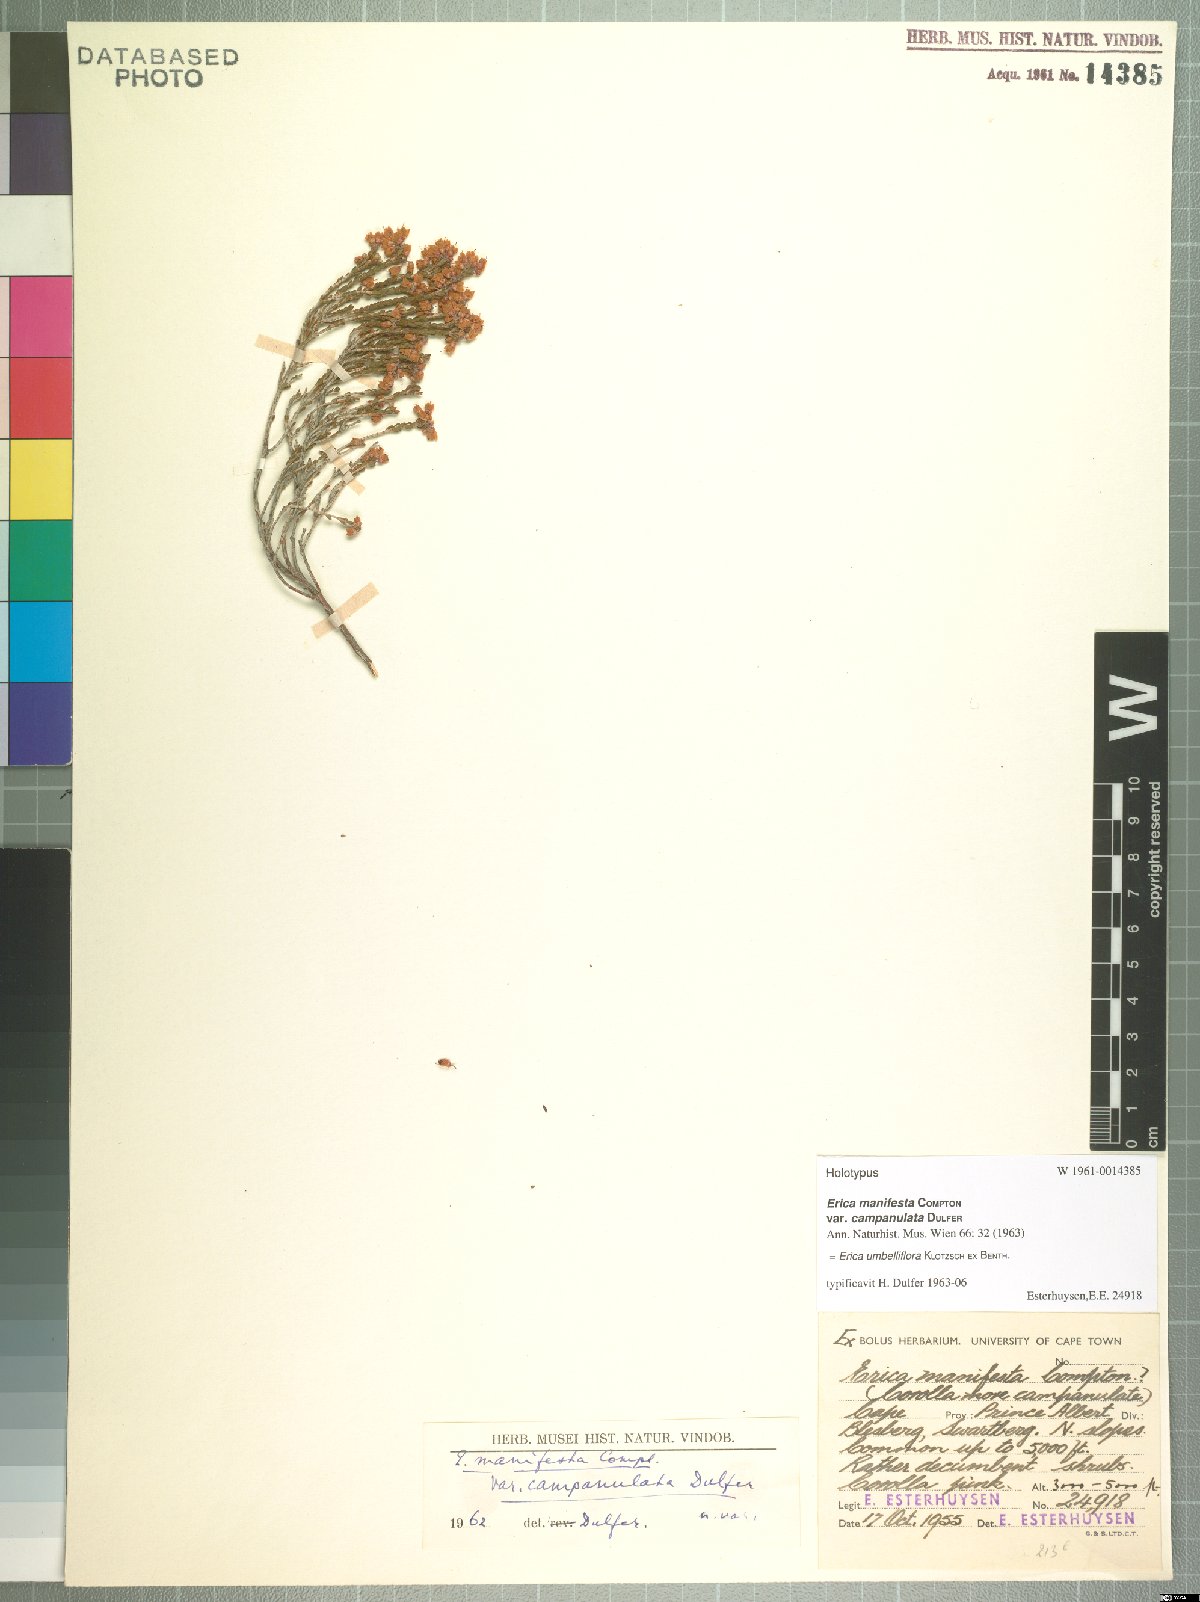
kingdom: Plantae
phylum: Tracheophyta
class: Magnoliopsida
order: Ericales
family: Ericaceae
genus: Erica
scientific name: Erica umbelliflora
